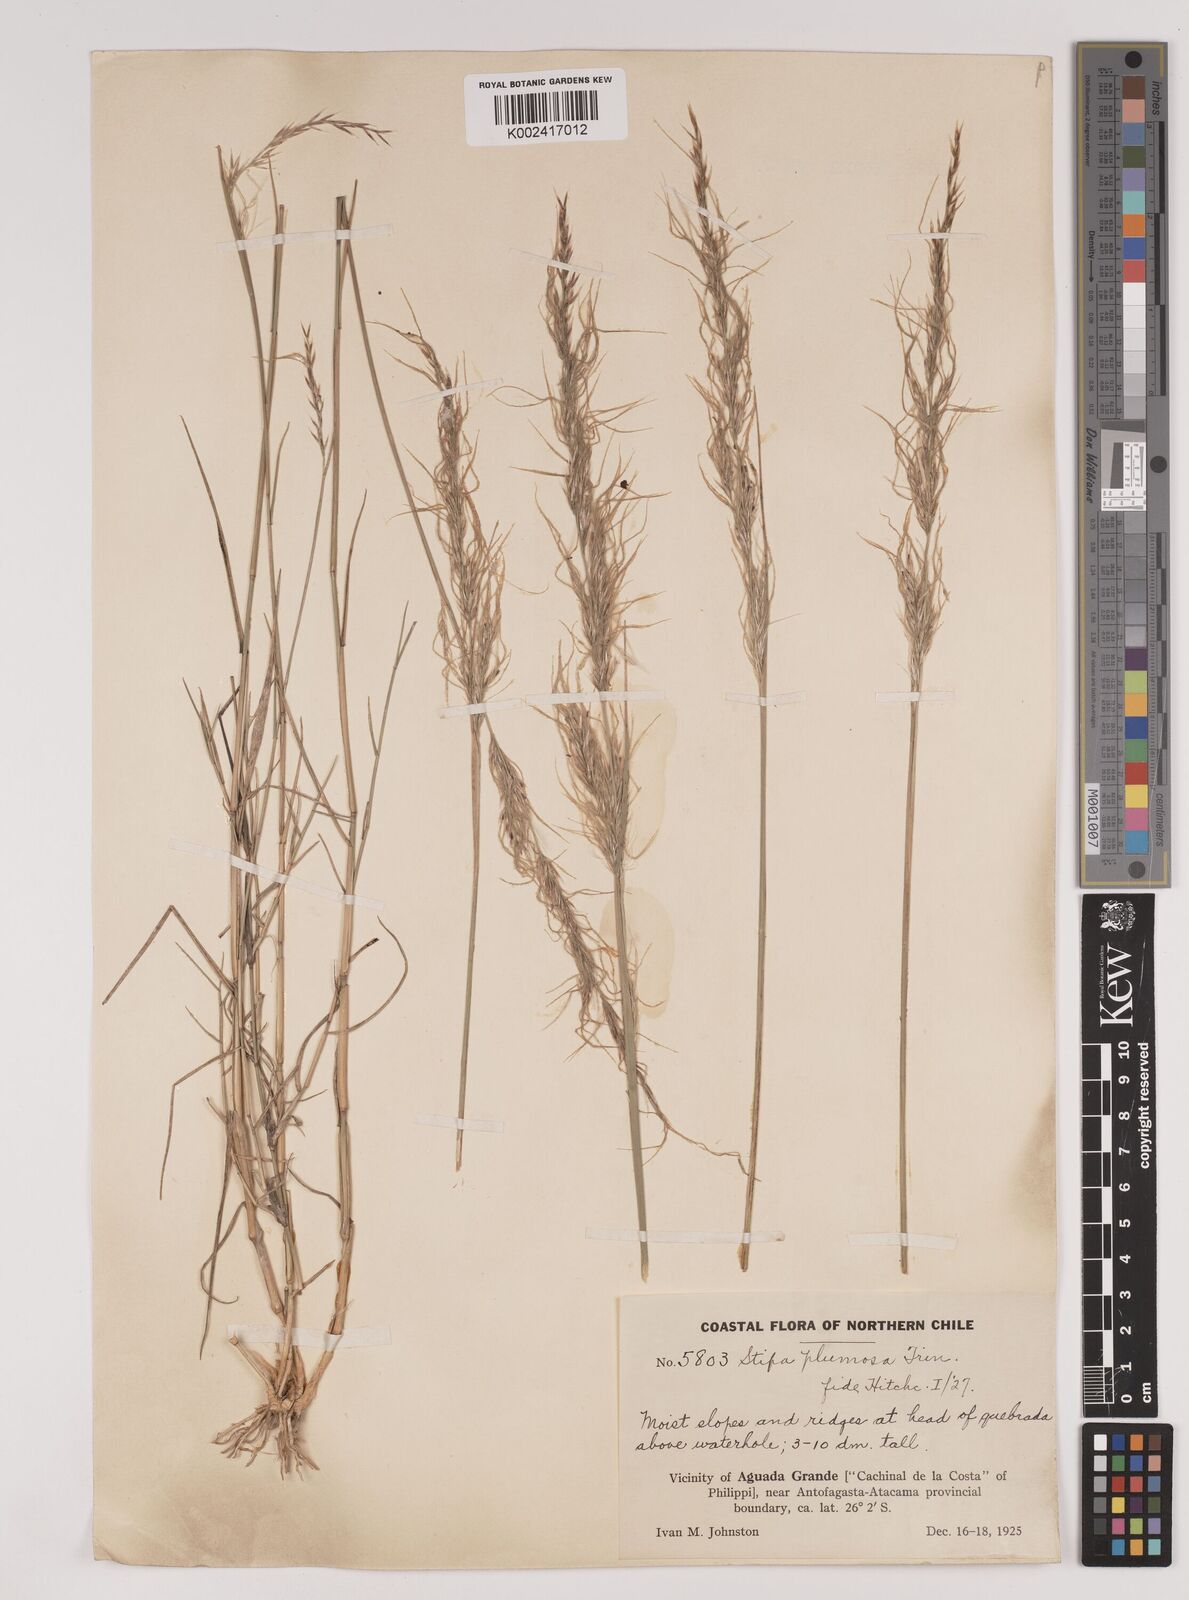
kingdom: Plantae
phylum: Tracheophyta
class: Liliopsida
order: Poales
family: Poaceae
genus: Stipa
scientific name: Stipa plumosa
